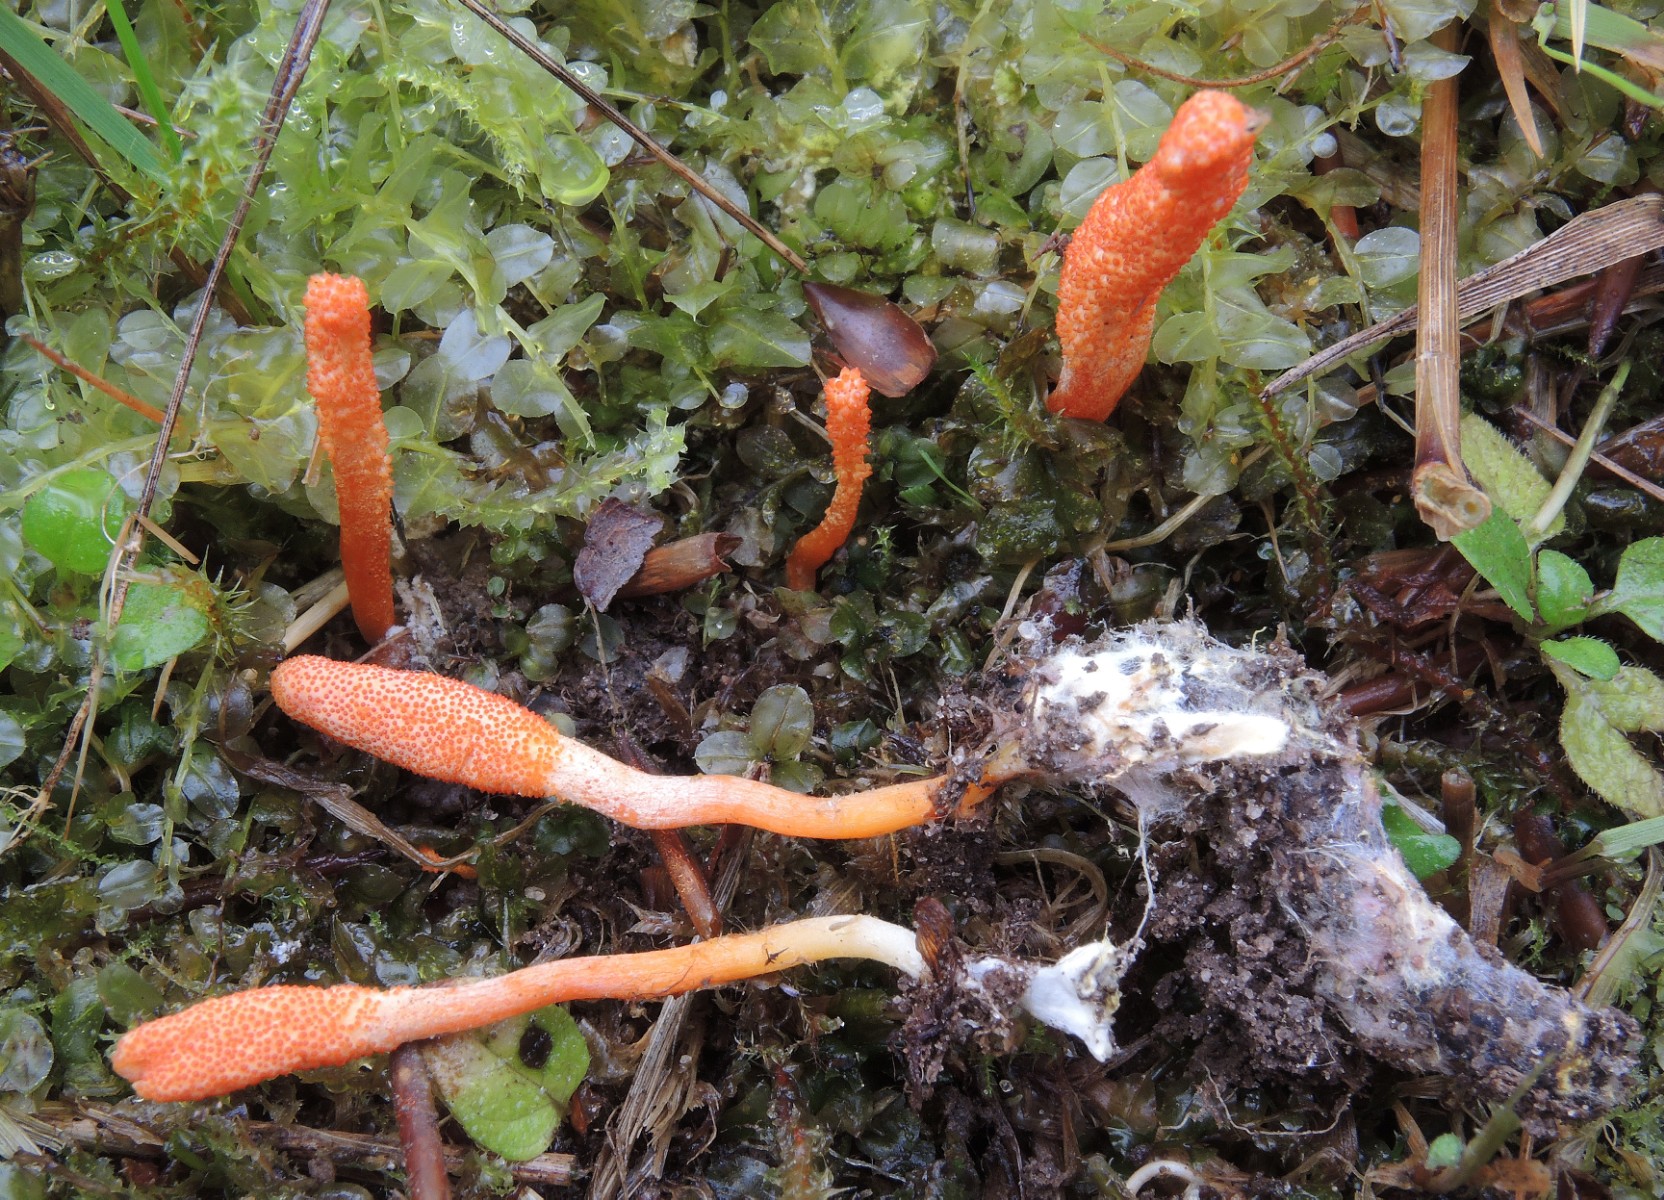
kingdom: Fungi
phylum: Ascomycota
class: Sordariomycetes
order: Hypocreales
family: Cordycipitaceae
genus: Cordyceps
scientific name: Cordyceps militaris
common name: puppe-snyltekølle
